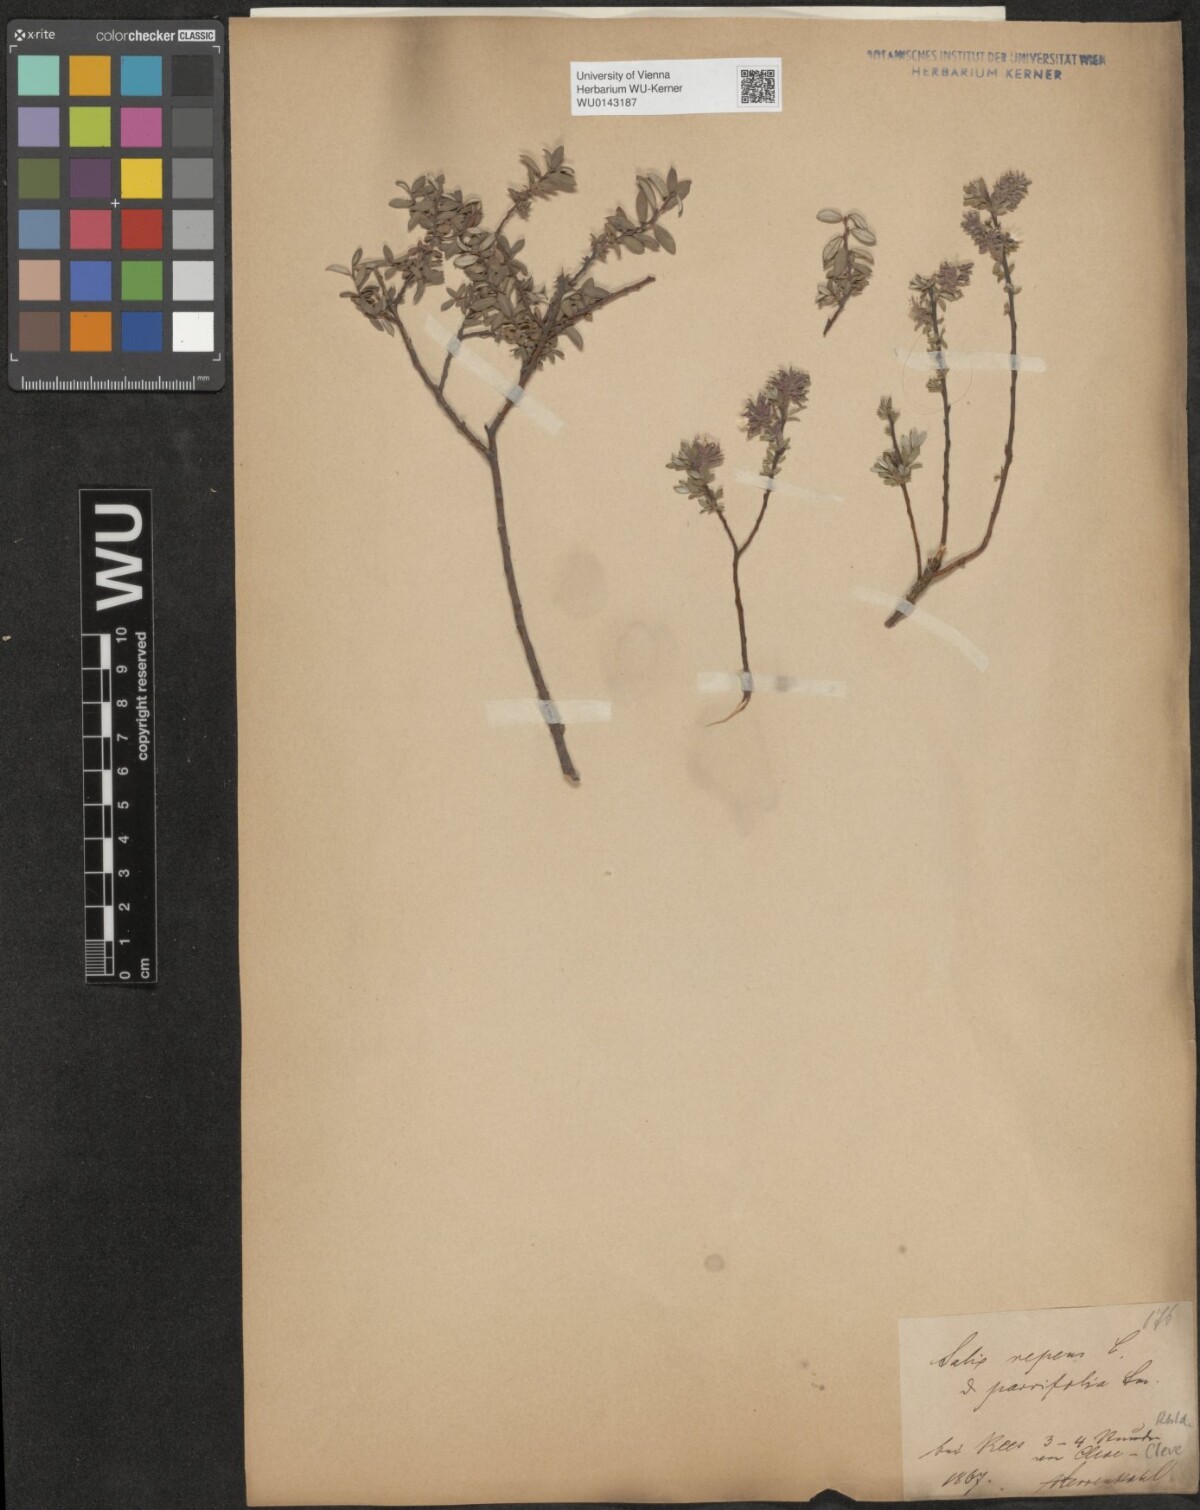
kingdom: Plantae
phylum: Tracheophyta
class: Magnoliopsida
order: Malpighiales
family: Salicaceae
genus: Salix
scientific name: Salix repens
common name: Creeping willow
